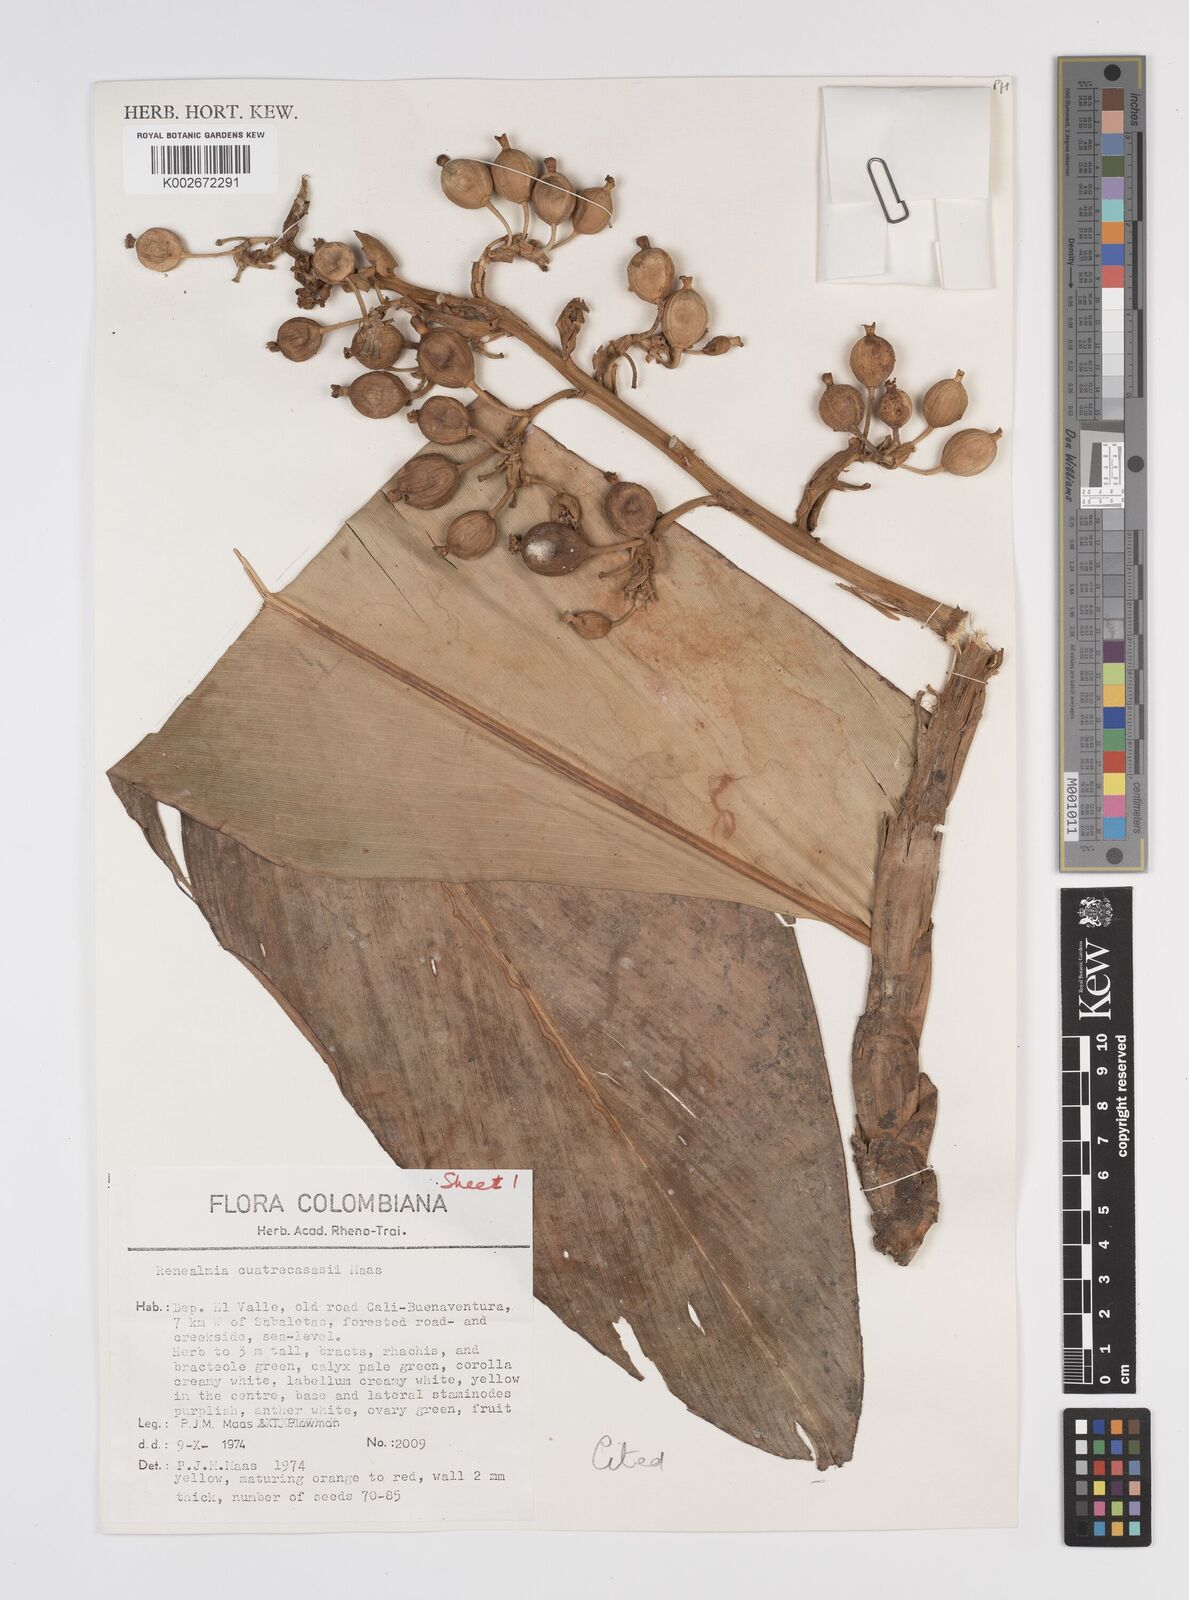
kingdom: Plantae
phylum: Tracheophyta
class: Liliopsida
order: Zingiberales
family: Zingiberaceae
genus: Renealmia
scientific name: Renealmia cuatrecasasii
